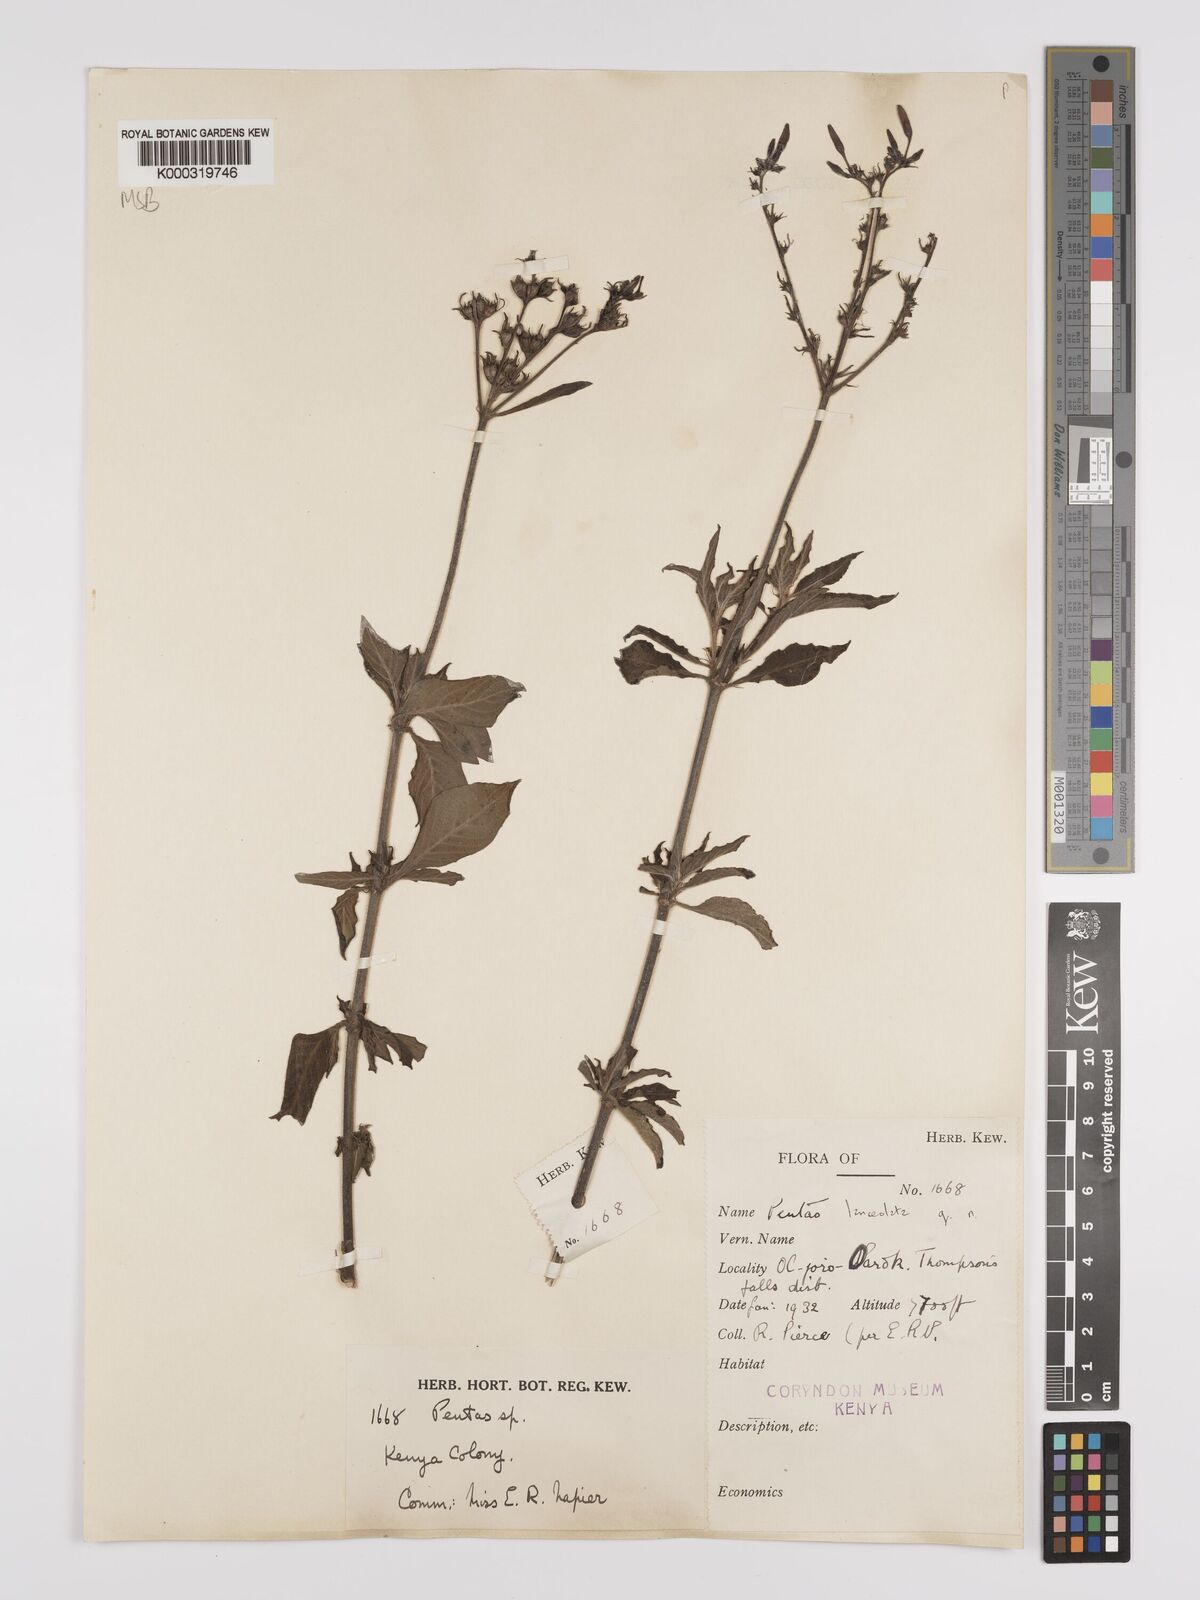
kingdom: Plantae
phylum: Tracheophyta
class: Magnoliopsida
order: Gentianales
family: Rubiaceae
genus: Pentas
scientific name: Pentas lanceolata
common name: Egyptian starcluster
